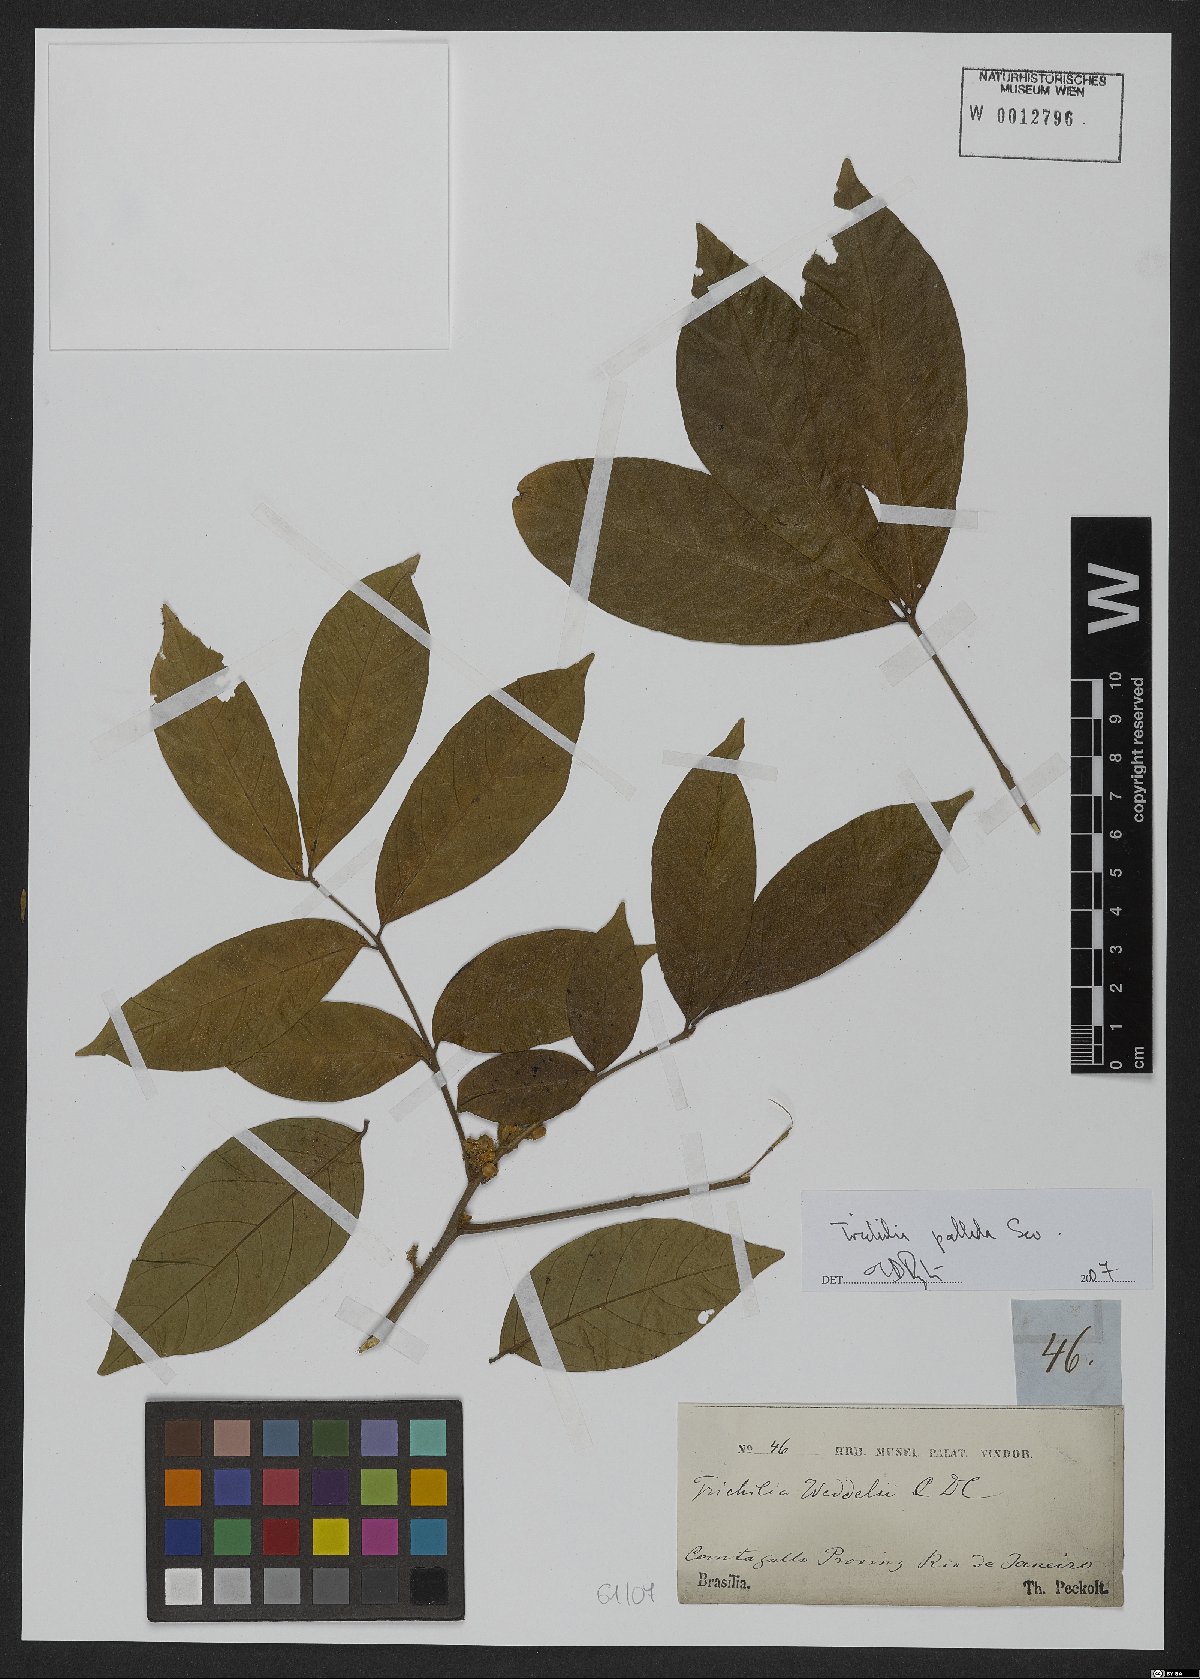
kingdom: Plantae
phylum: Tracheophyta
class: Magnoliopsida
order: Sapindales
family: Meliaceae
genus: Trichilia
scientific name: Trichilia pallida
